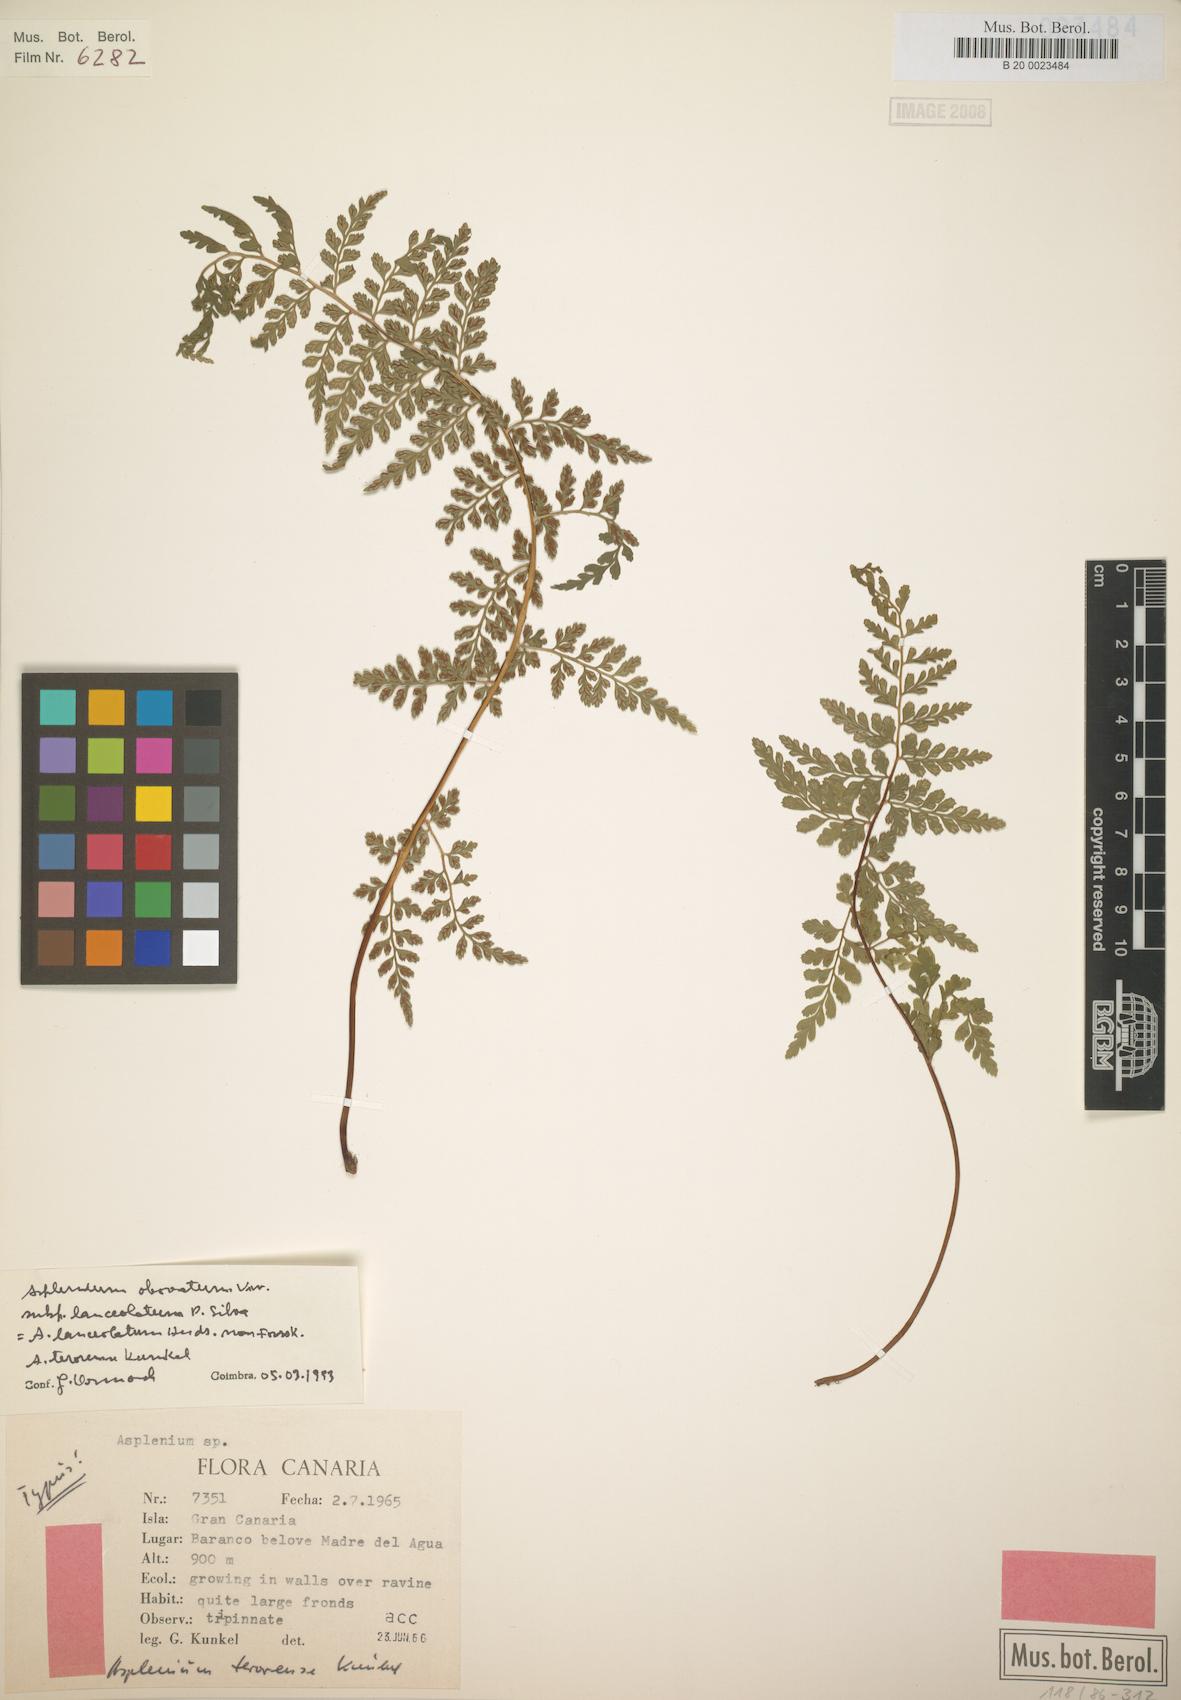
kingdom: Plantae
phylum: Tracheophyta
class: Polypodiopsida
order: Polypodiales
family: Aspleniaceae
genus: Asplenium
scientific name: Asplenium obovatum
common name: Lanceolate spleenwort
